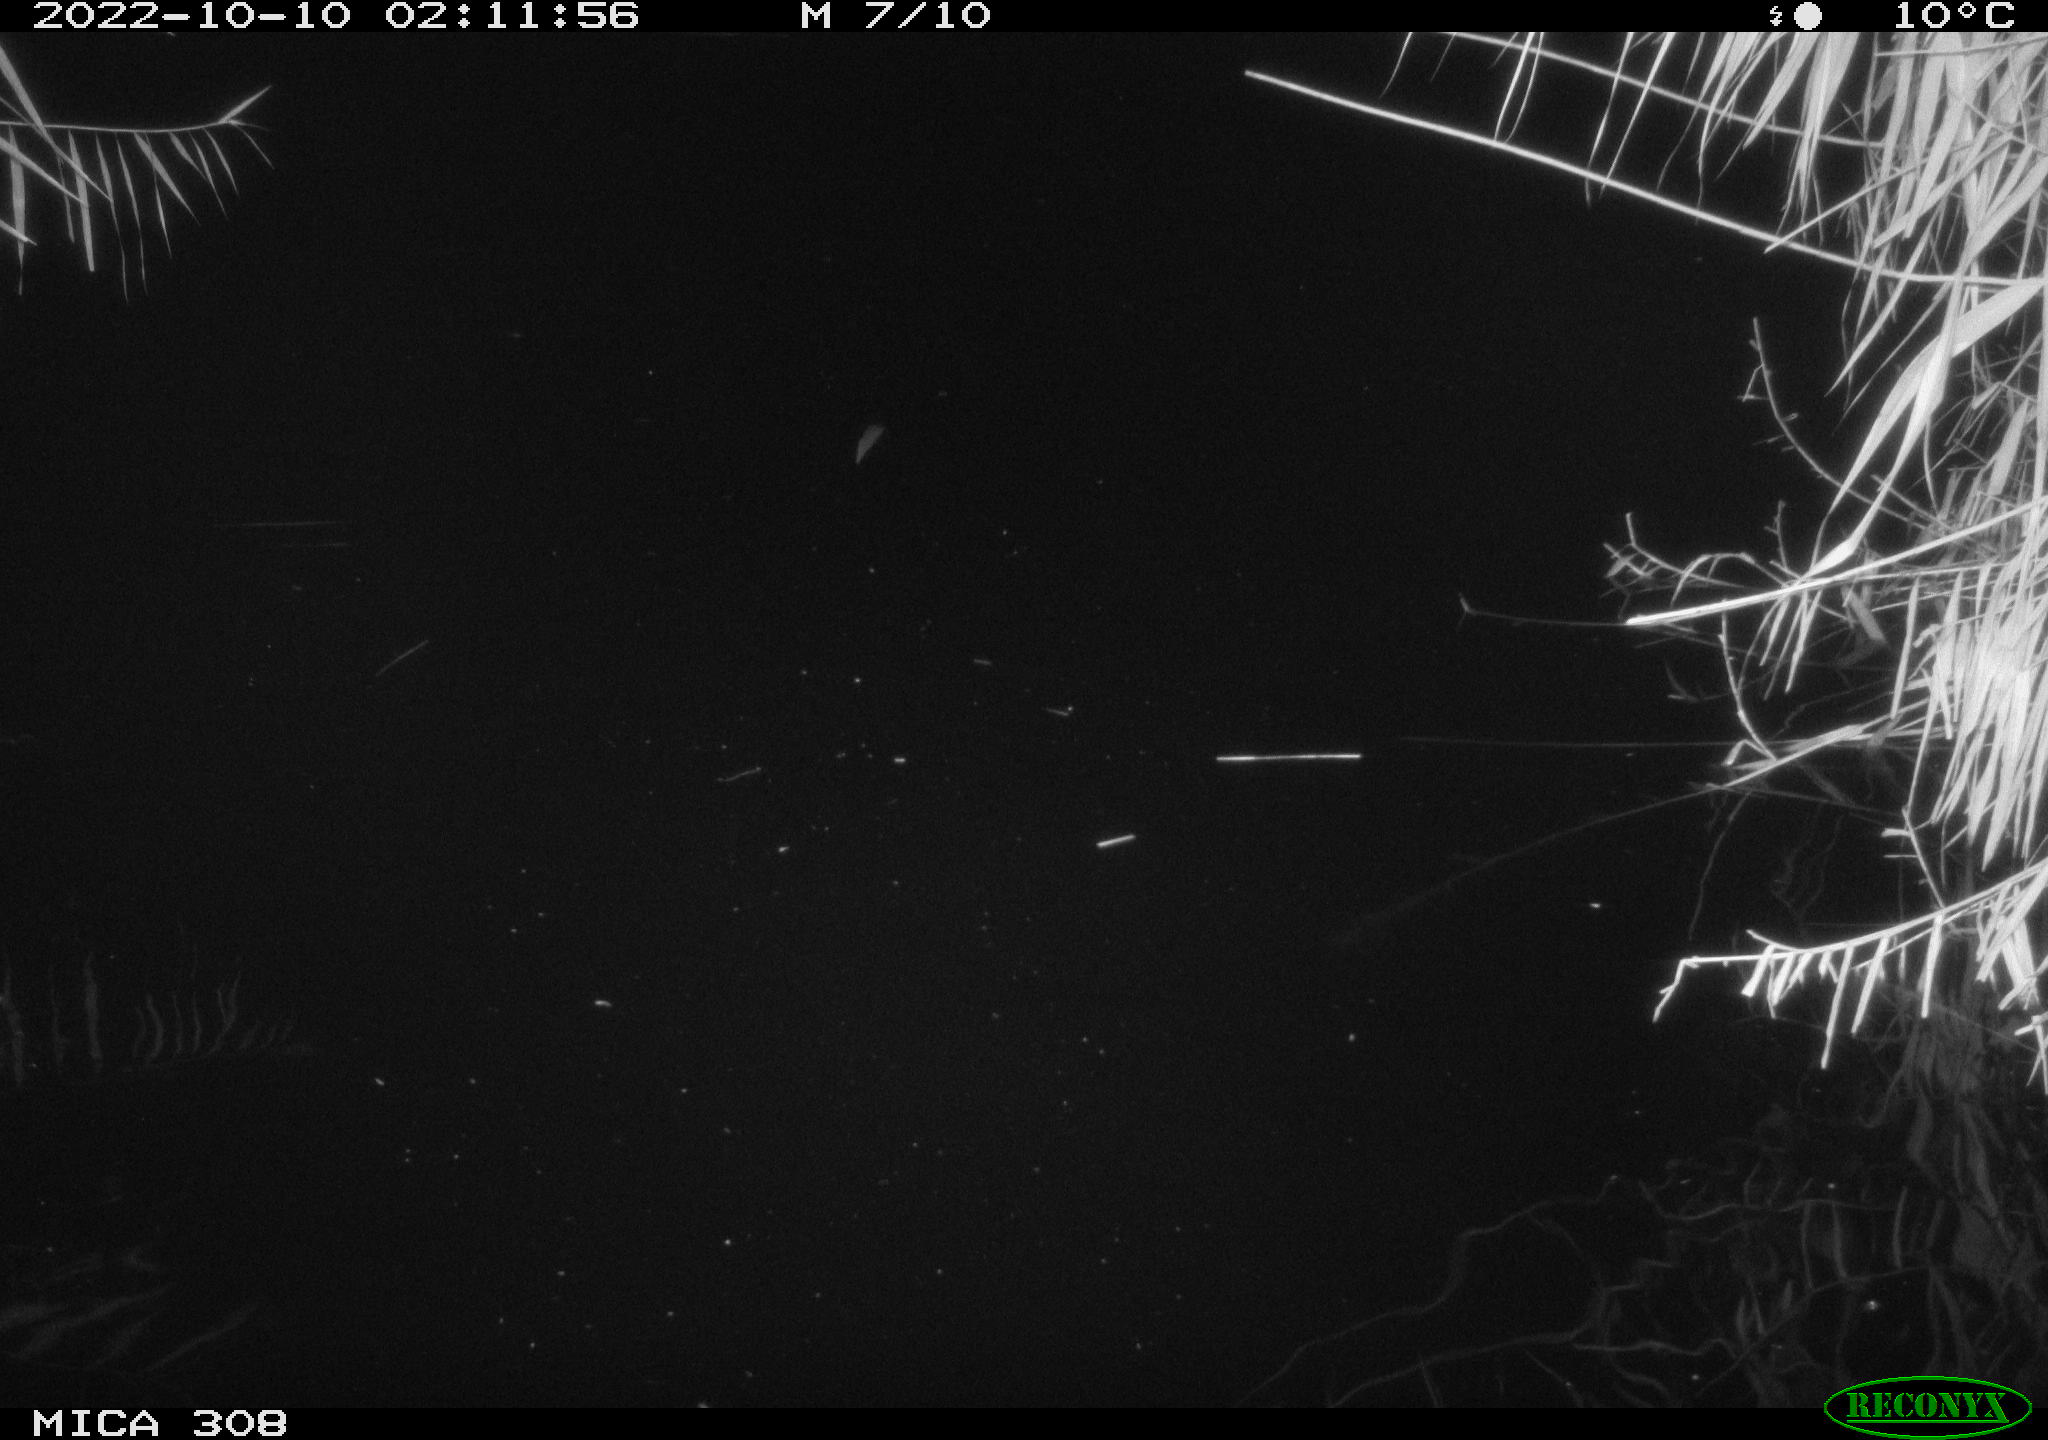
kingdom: Animalia
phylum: Chordata
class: Mammalia
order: Rodentia
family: Muridae
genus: Rattus
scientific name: Rattus norvegicus
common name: Brown rat
